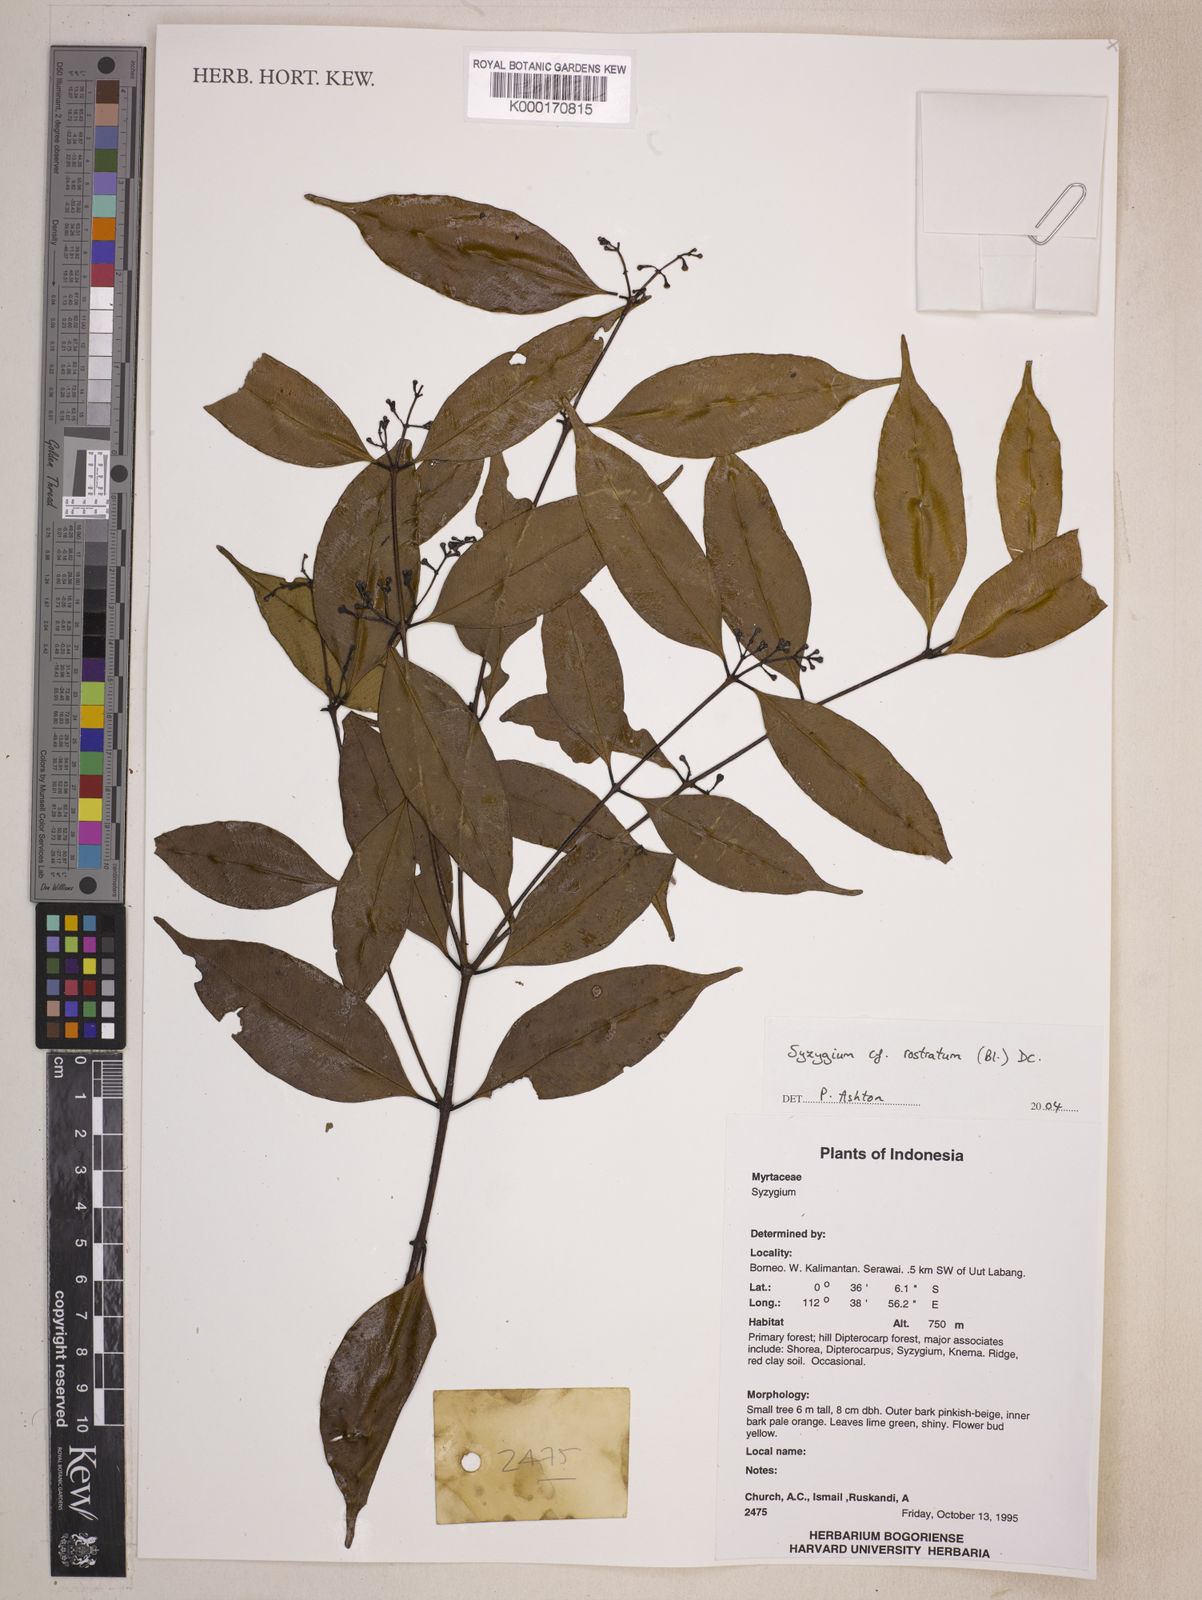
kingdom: Plantae
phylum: Tracheophyta
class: Magnoliopsida
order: Myrtales
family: Myrtaceae
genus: Syzygium
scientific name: Syzygium rostratum
